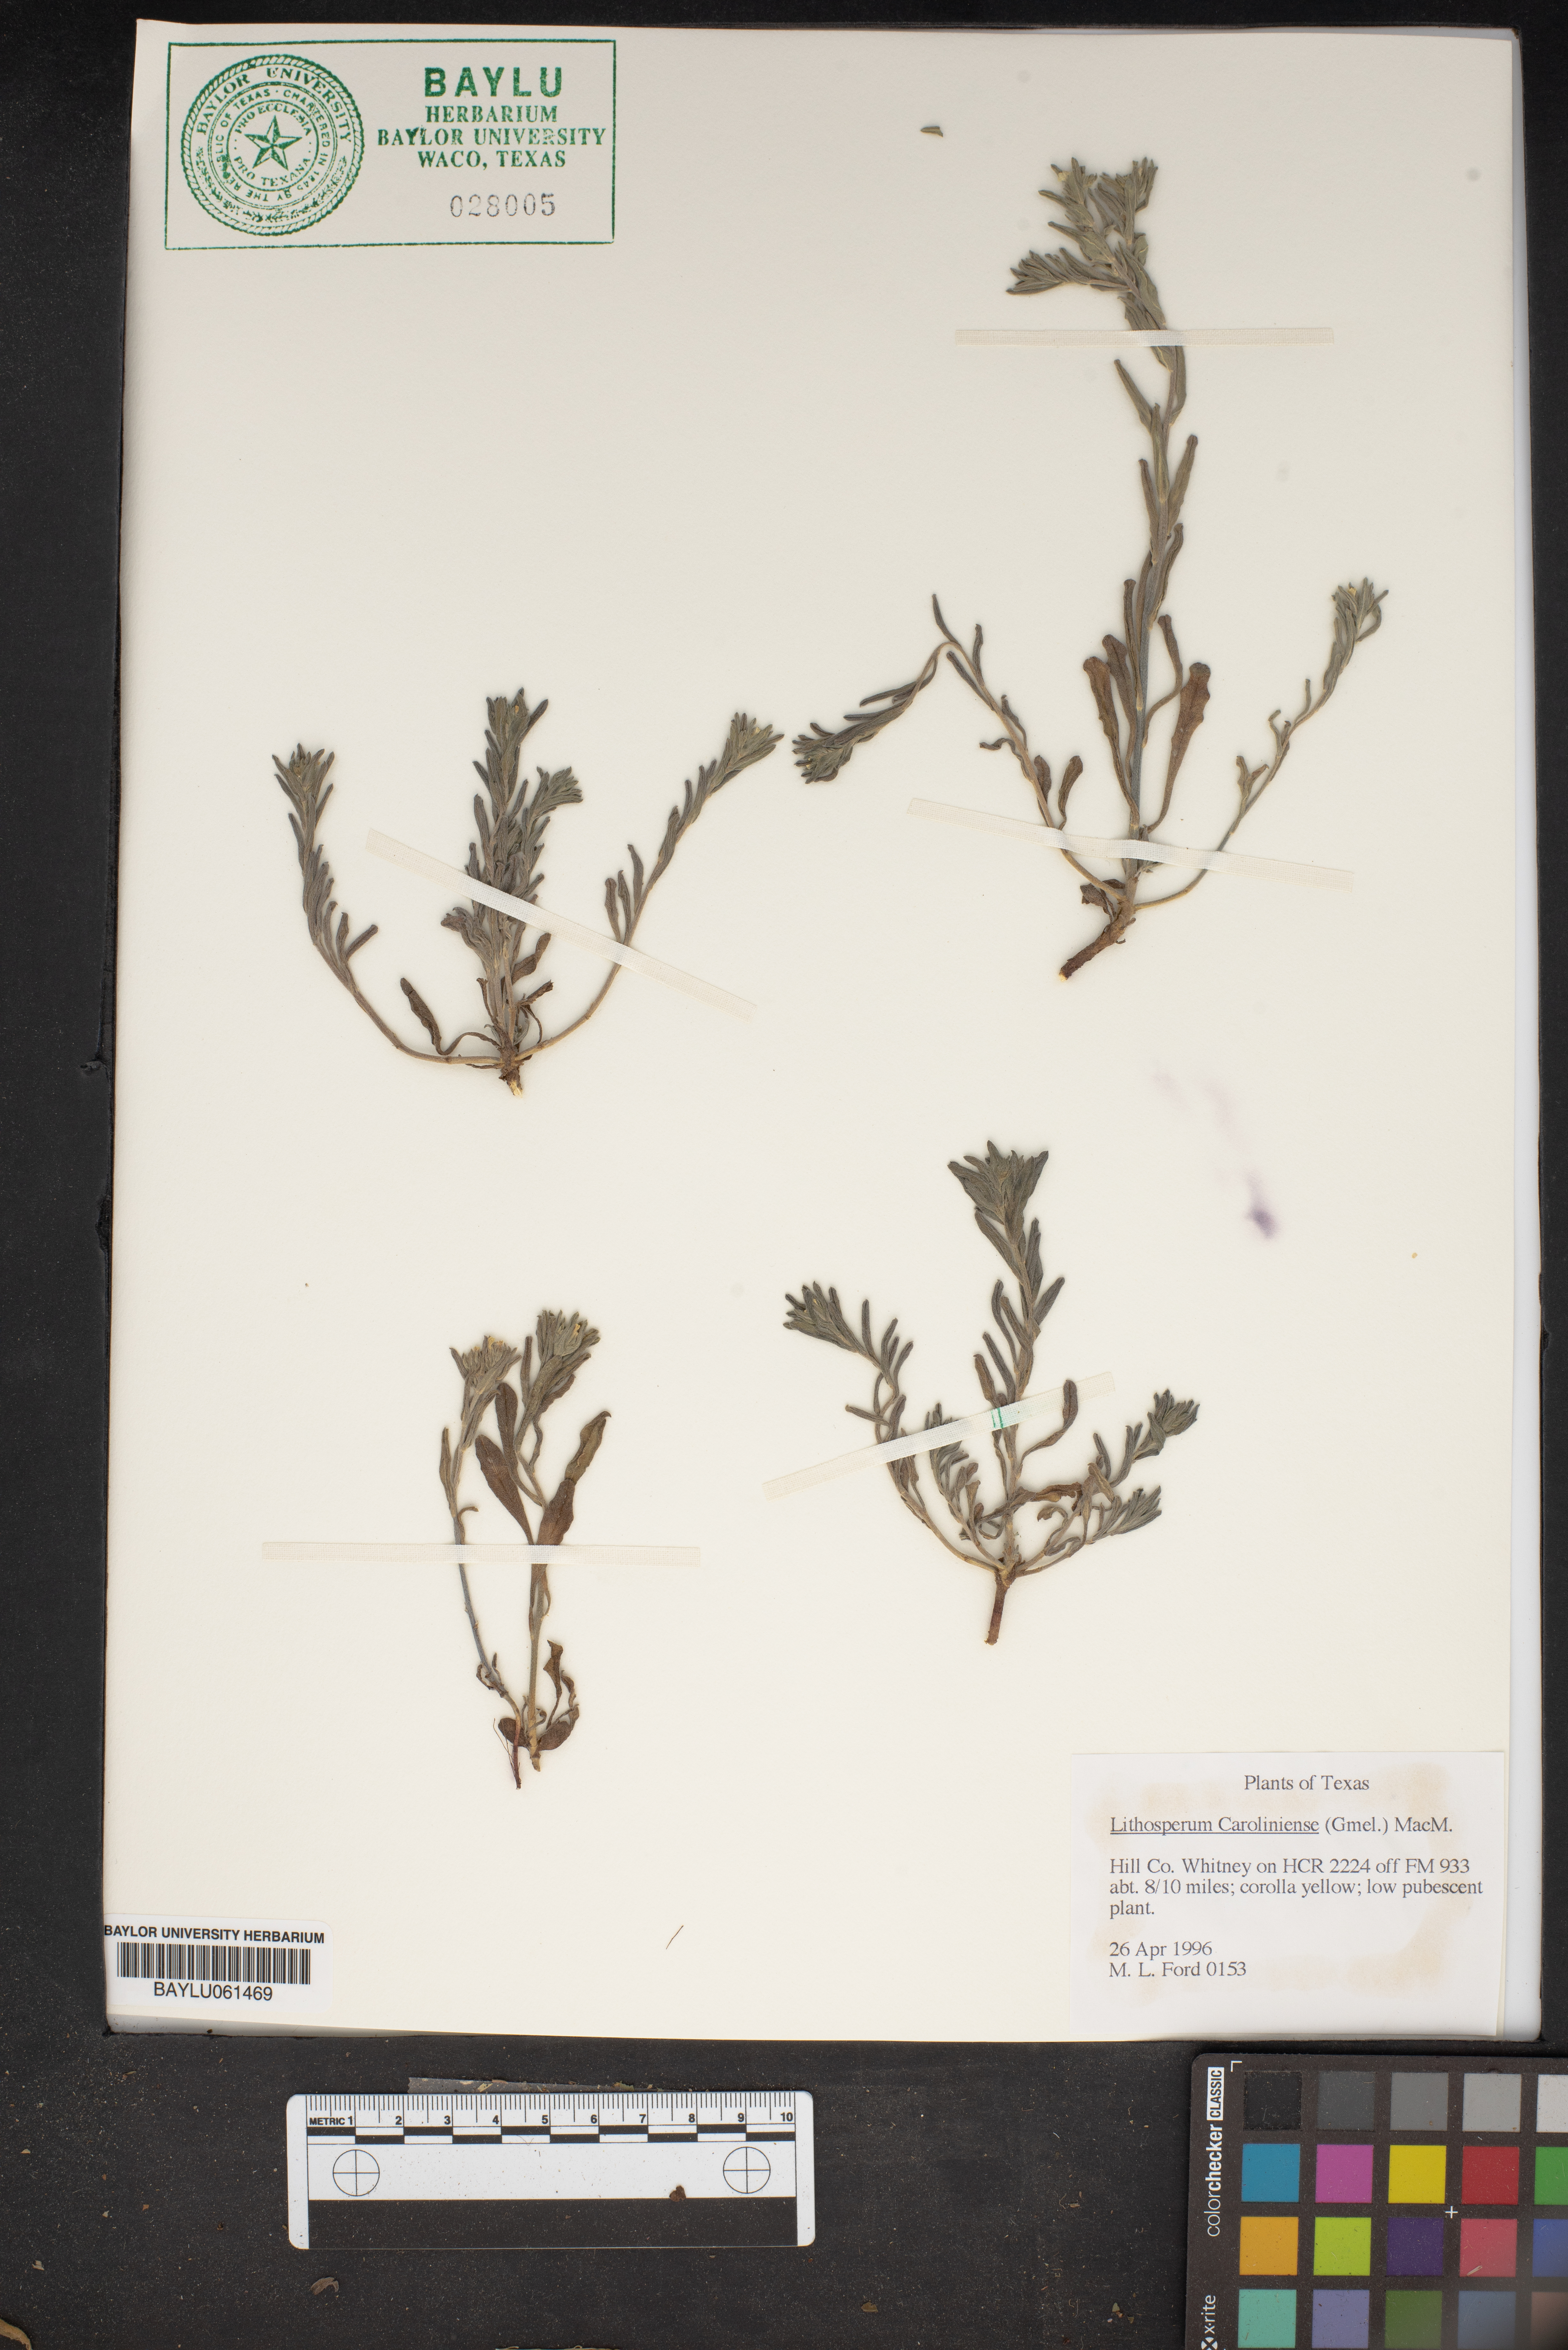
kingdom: Plantae
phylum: Tracheophyta
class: Magnoliopsida
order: Boraginales
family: Boraginaceae
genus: Lithospermum
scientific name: Lithospermum caroliniense
